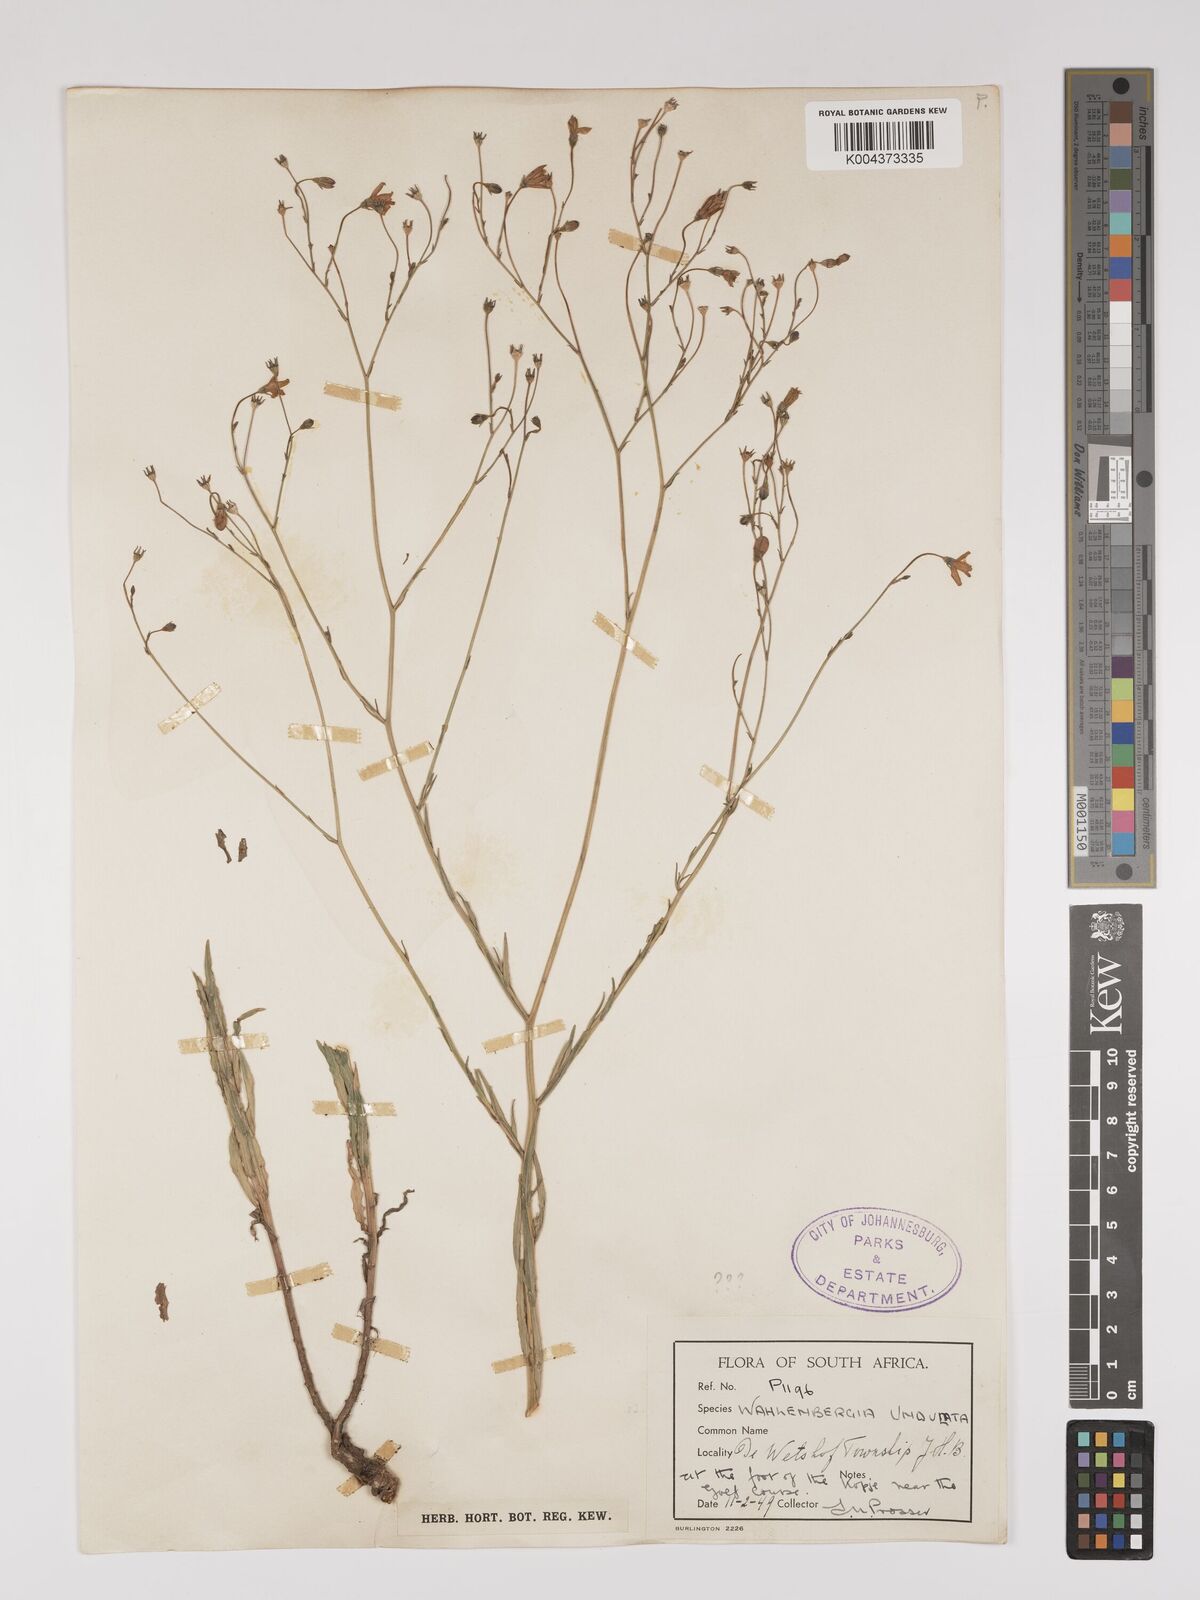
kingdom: Plantae
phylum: Tracheophyta
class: Magnoliopsida
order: Asterales
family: Campanulaceae
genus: Wahlenbergia
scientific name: Wahlenbergia undulata
